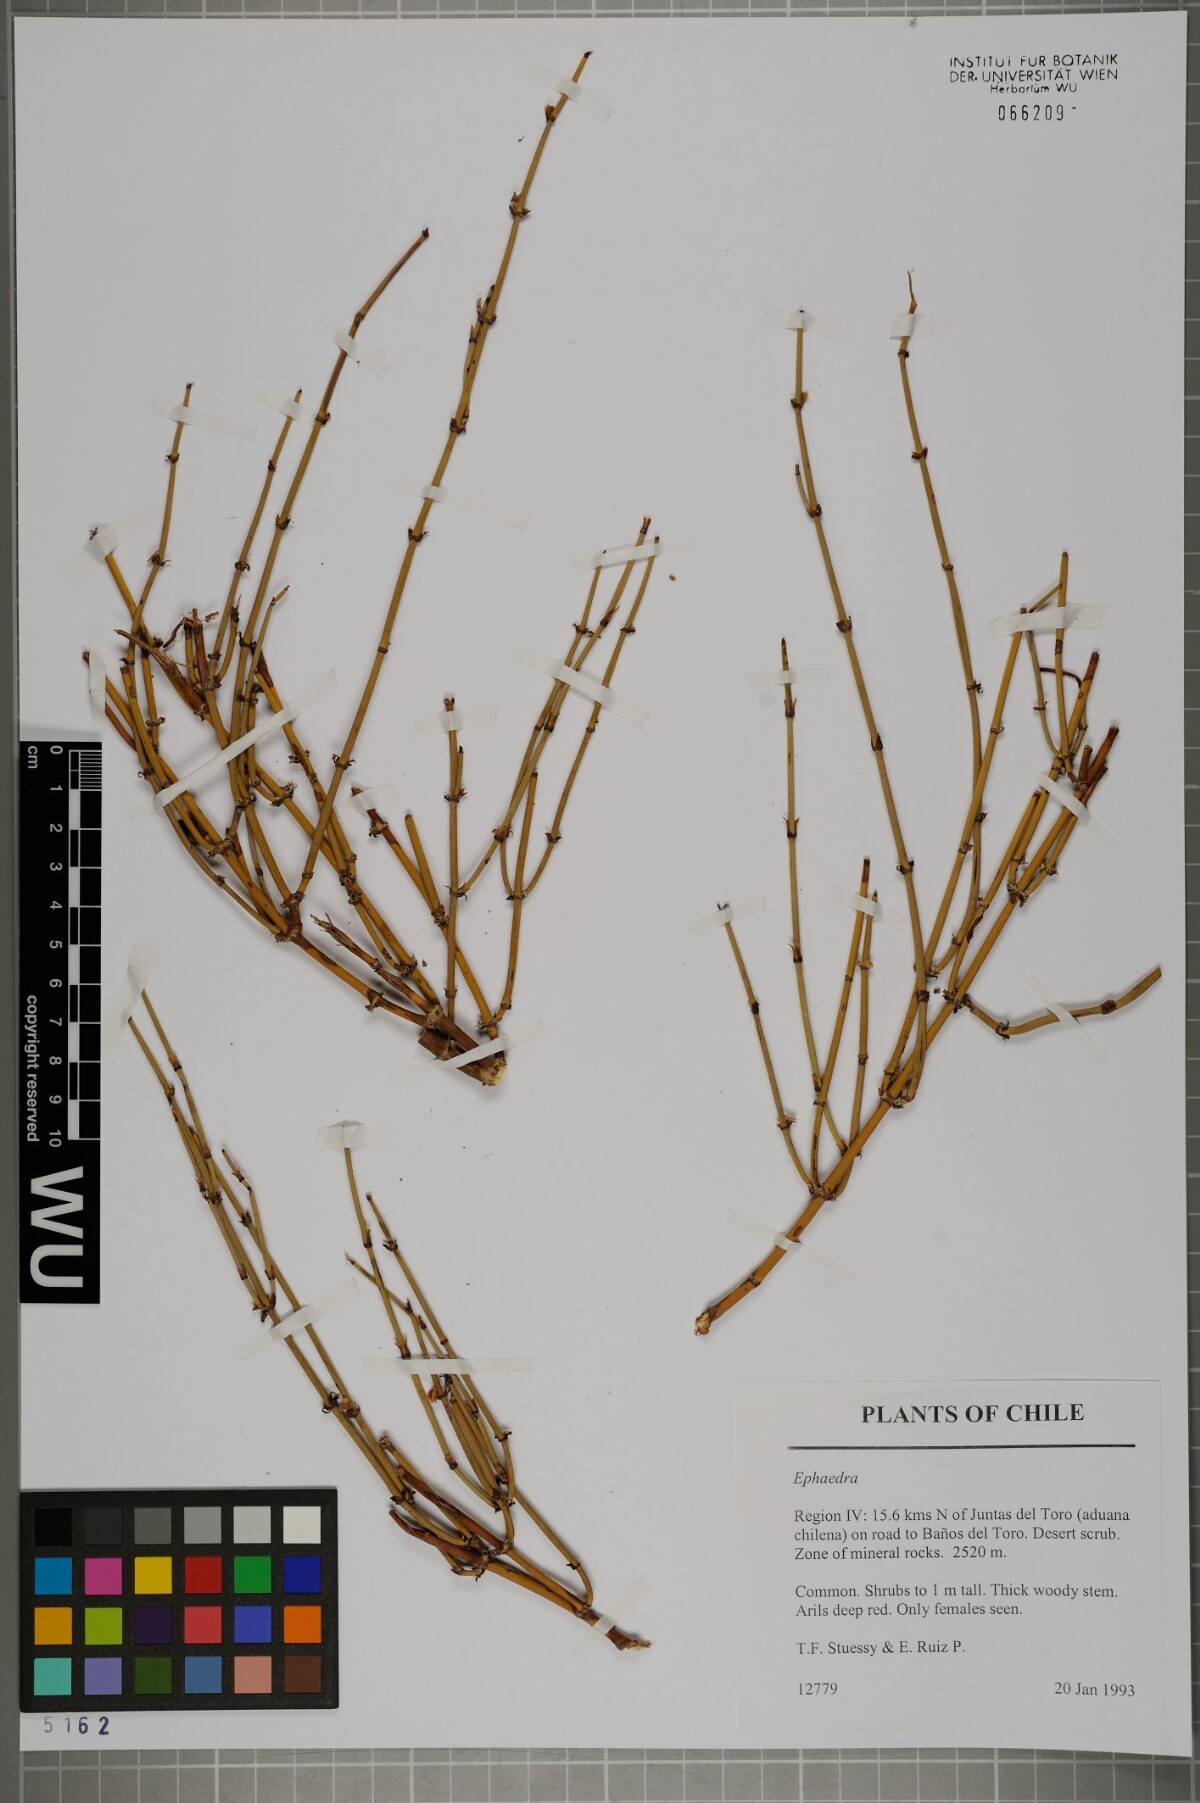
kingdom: Plantae
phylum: Tracheophyta
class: Gnetopsida
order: Ephedrales
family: Ephedraceae
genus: Ephedra
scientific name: Ephedra
